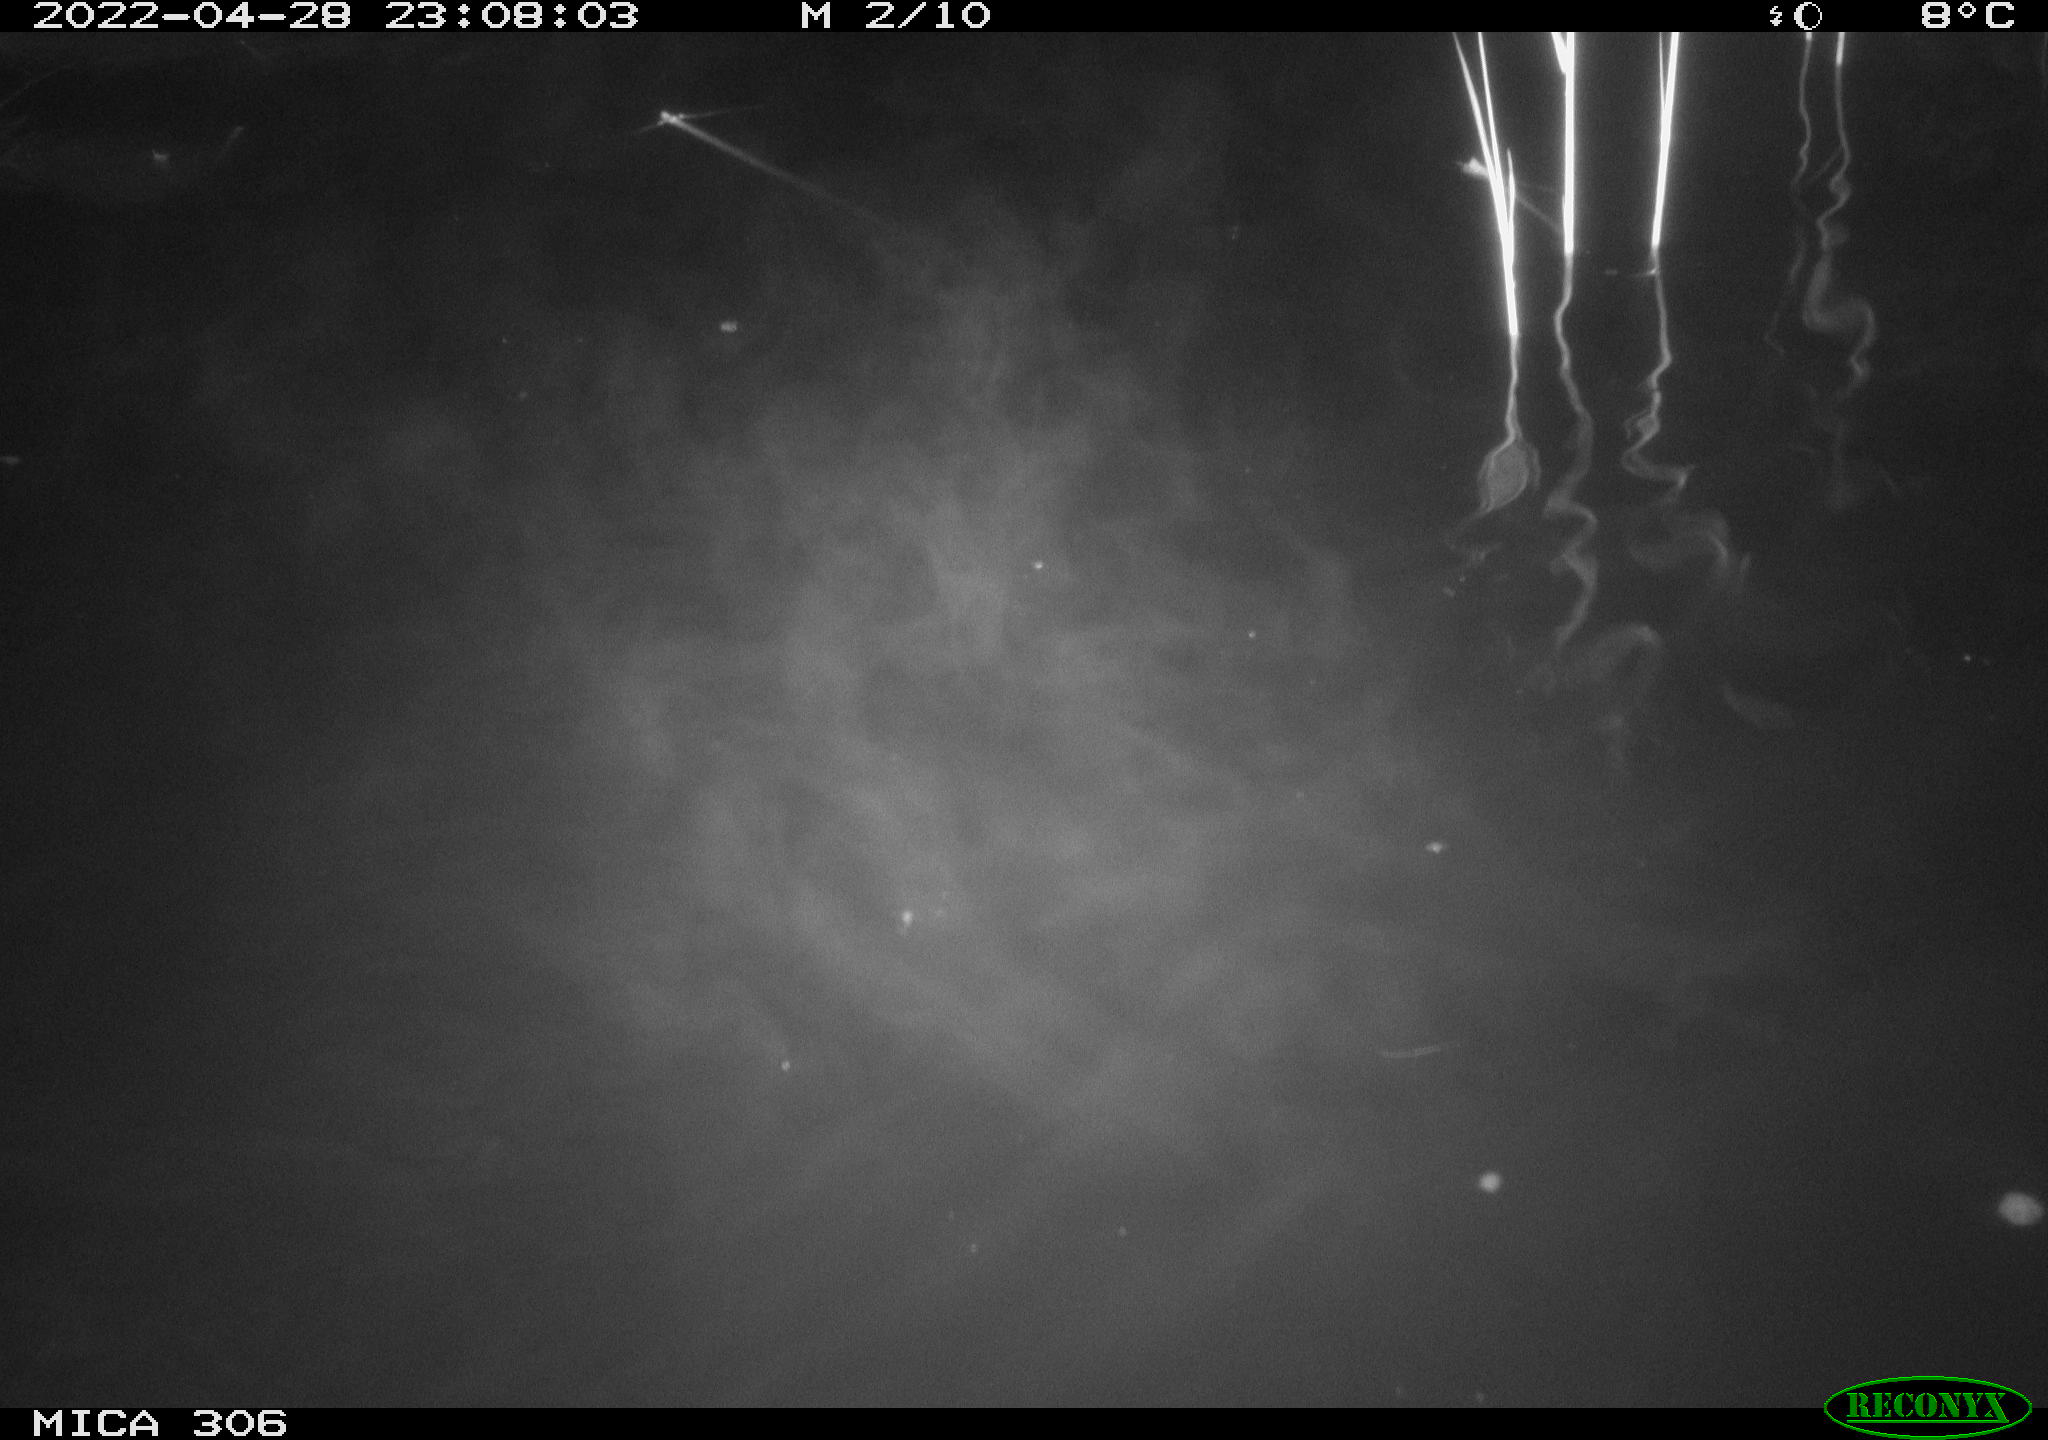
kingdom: Animalia
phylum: Chordata
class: Mammalia
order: Rodentia
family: Cricetidae
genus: Ondatra
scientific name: Ondatra zibethicus
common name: Muskrat
